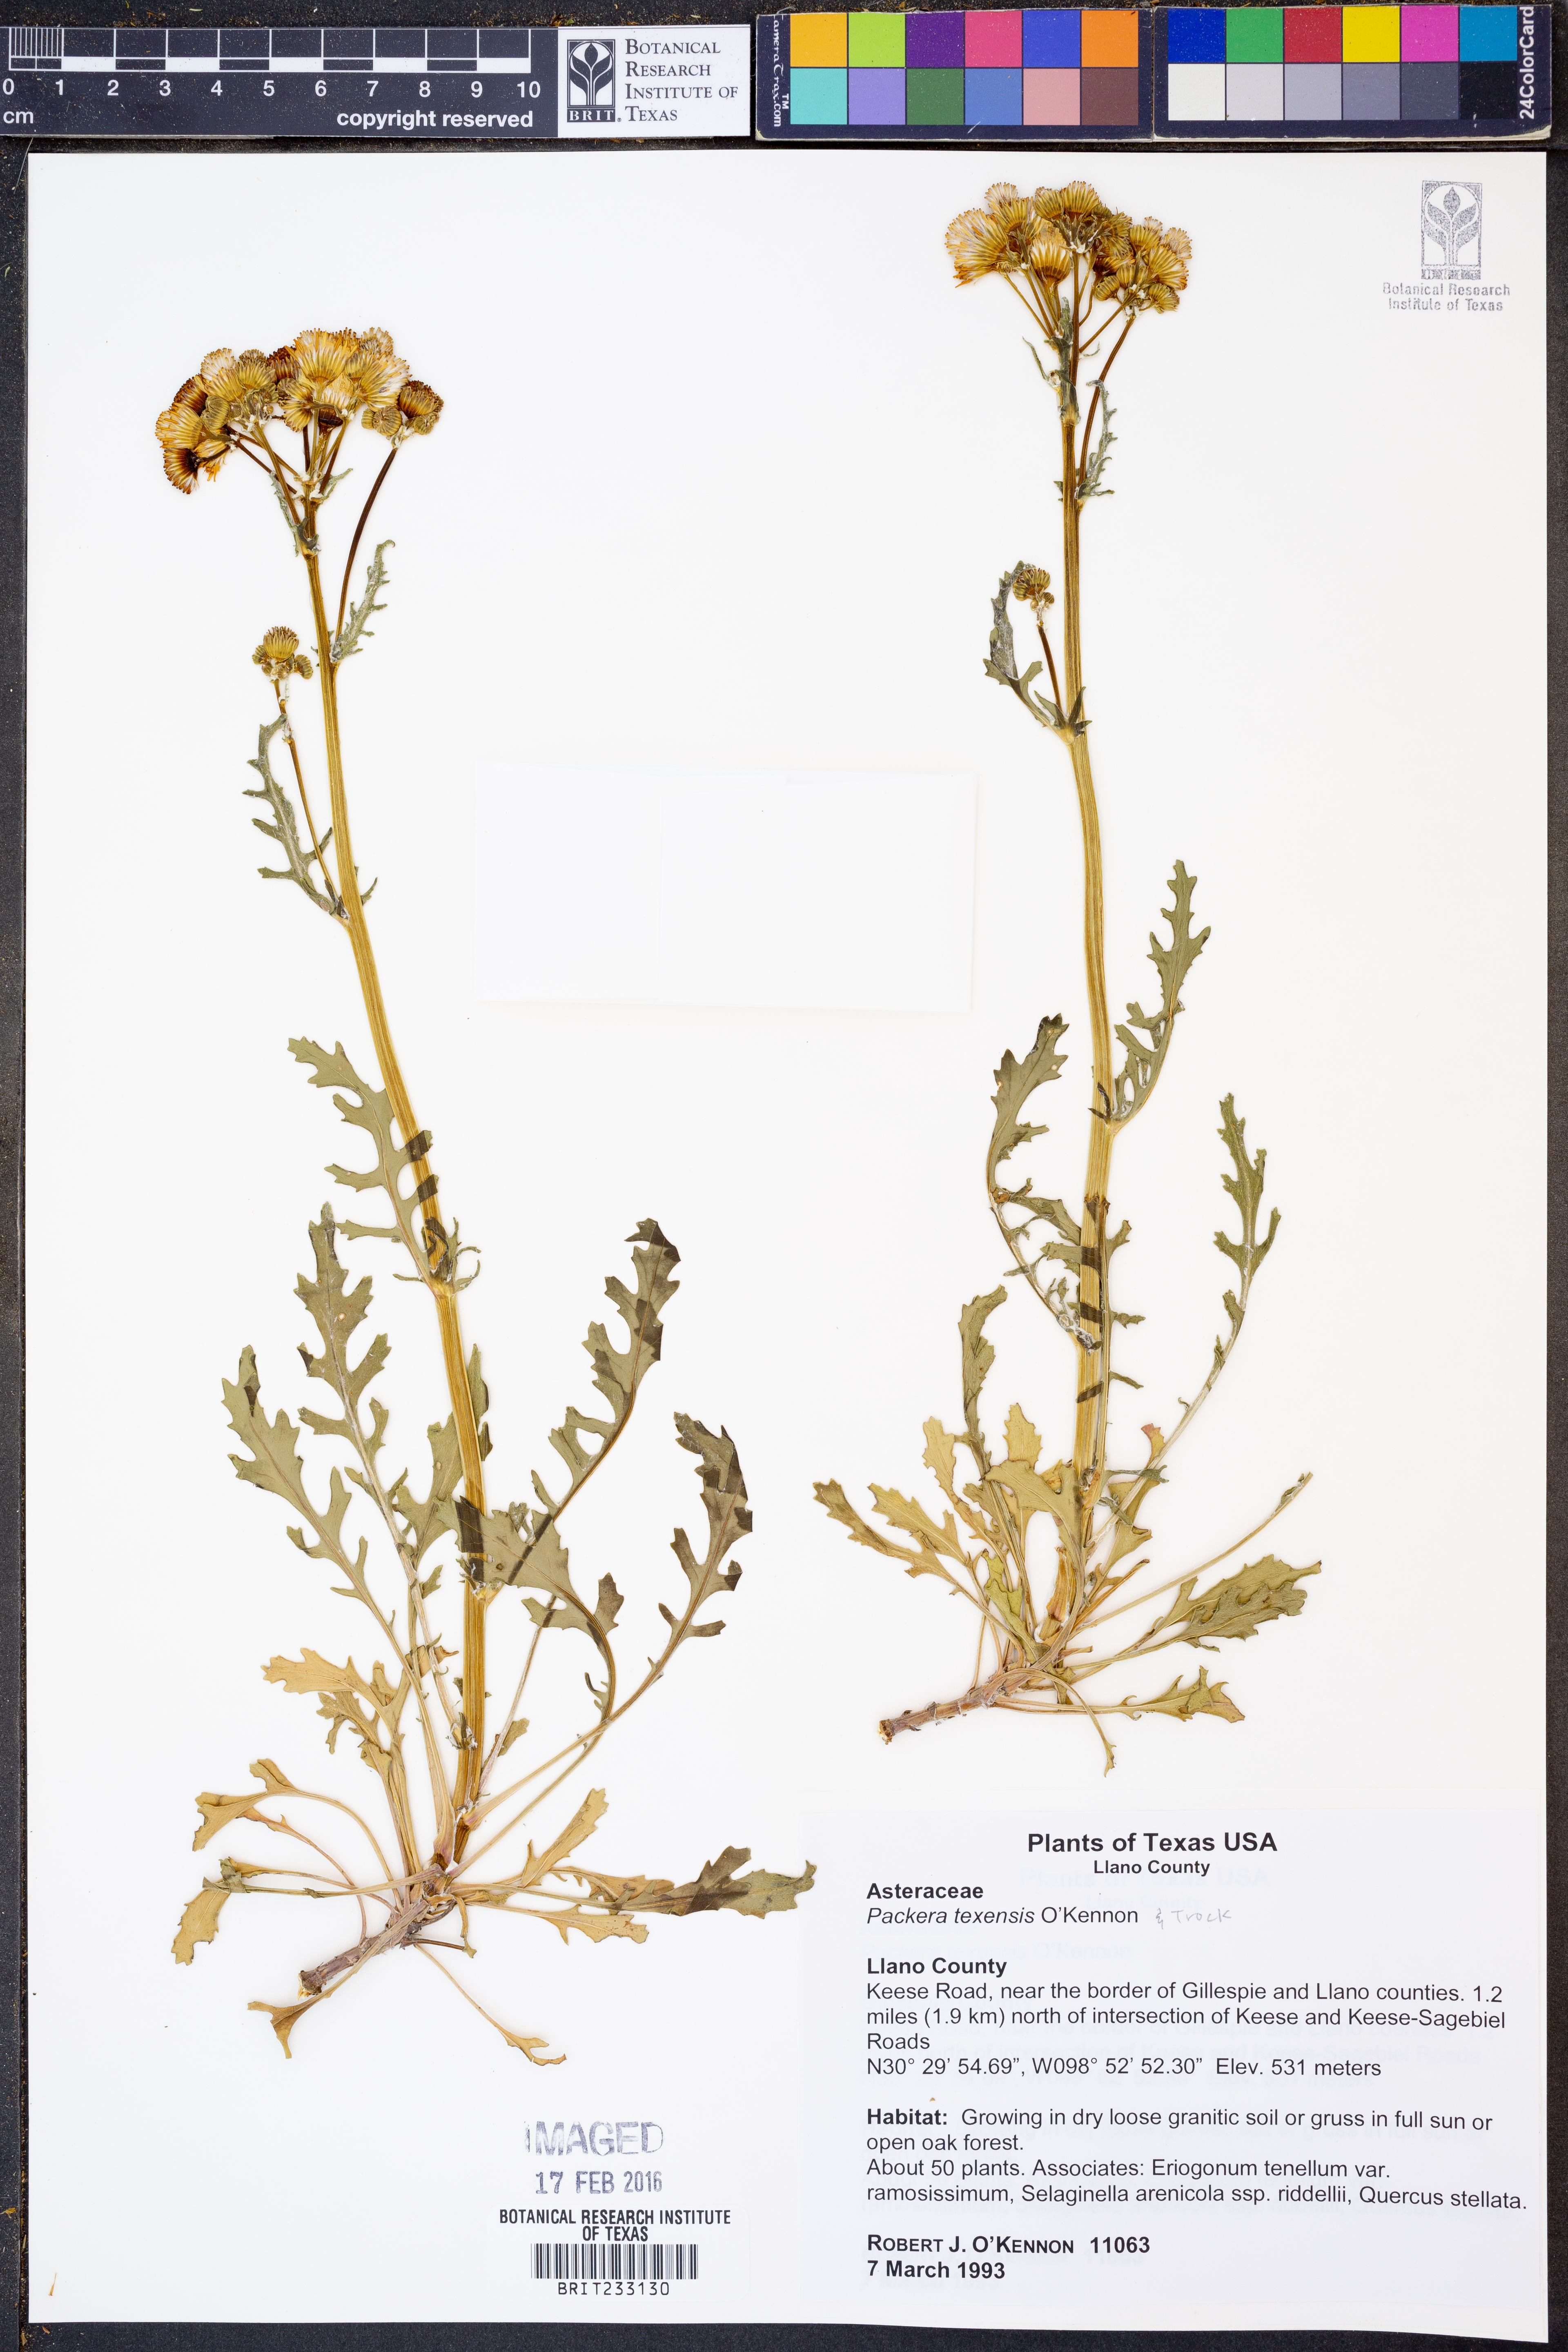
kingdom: Plantae
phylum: Tracheophyta
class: Magnoliopsida
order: Asterales
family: Asteraceae
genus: Packera
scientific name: Packera texensis
